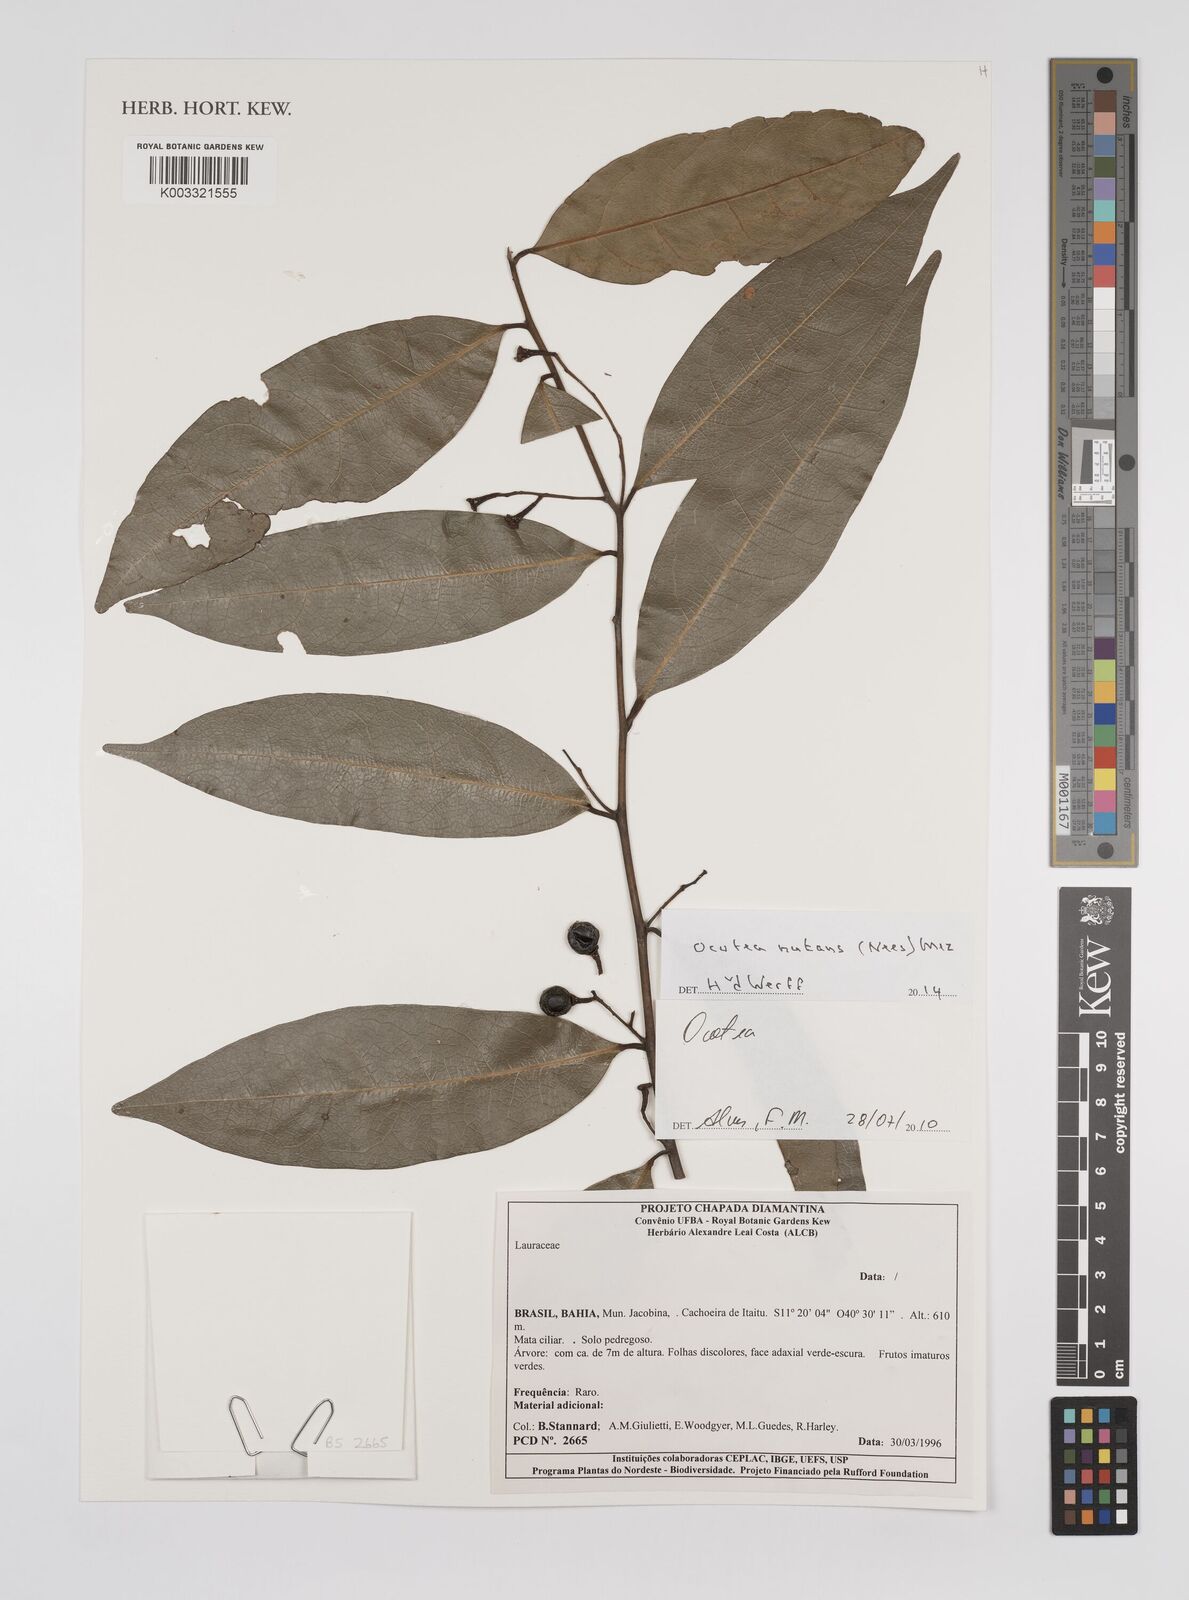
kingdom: Plantae
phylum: Tracheophyta
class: Magnoliopsida
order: Laurales
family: Lauraceae
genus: Mespilodaphne
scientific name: Mespilodaphne nutans
